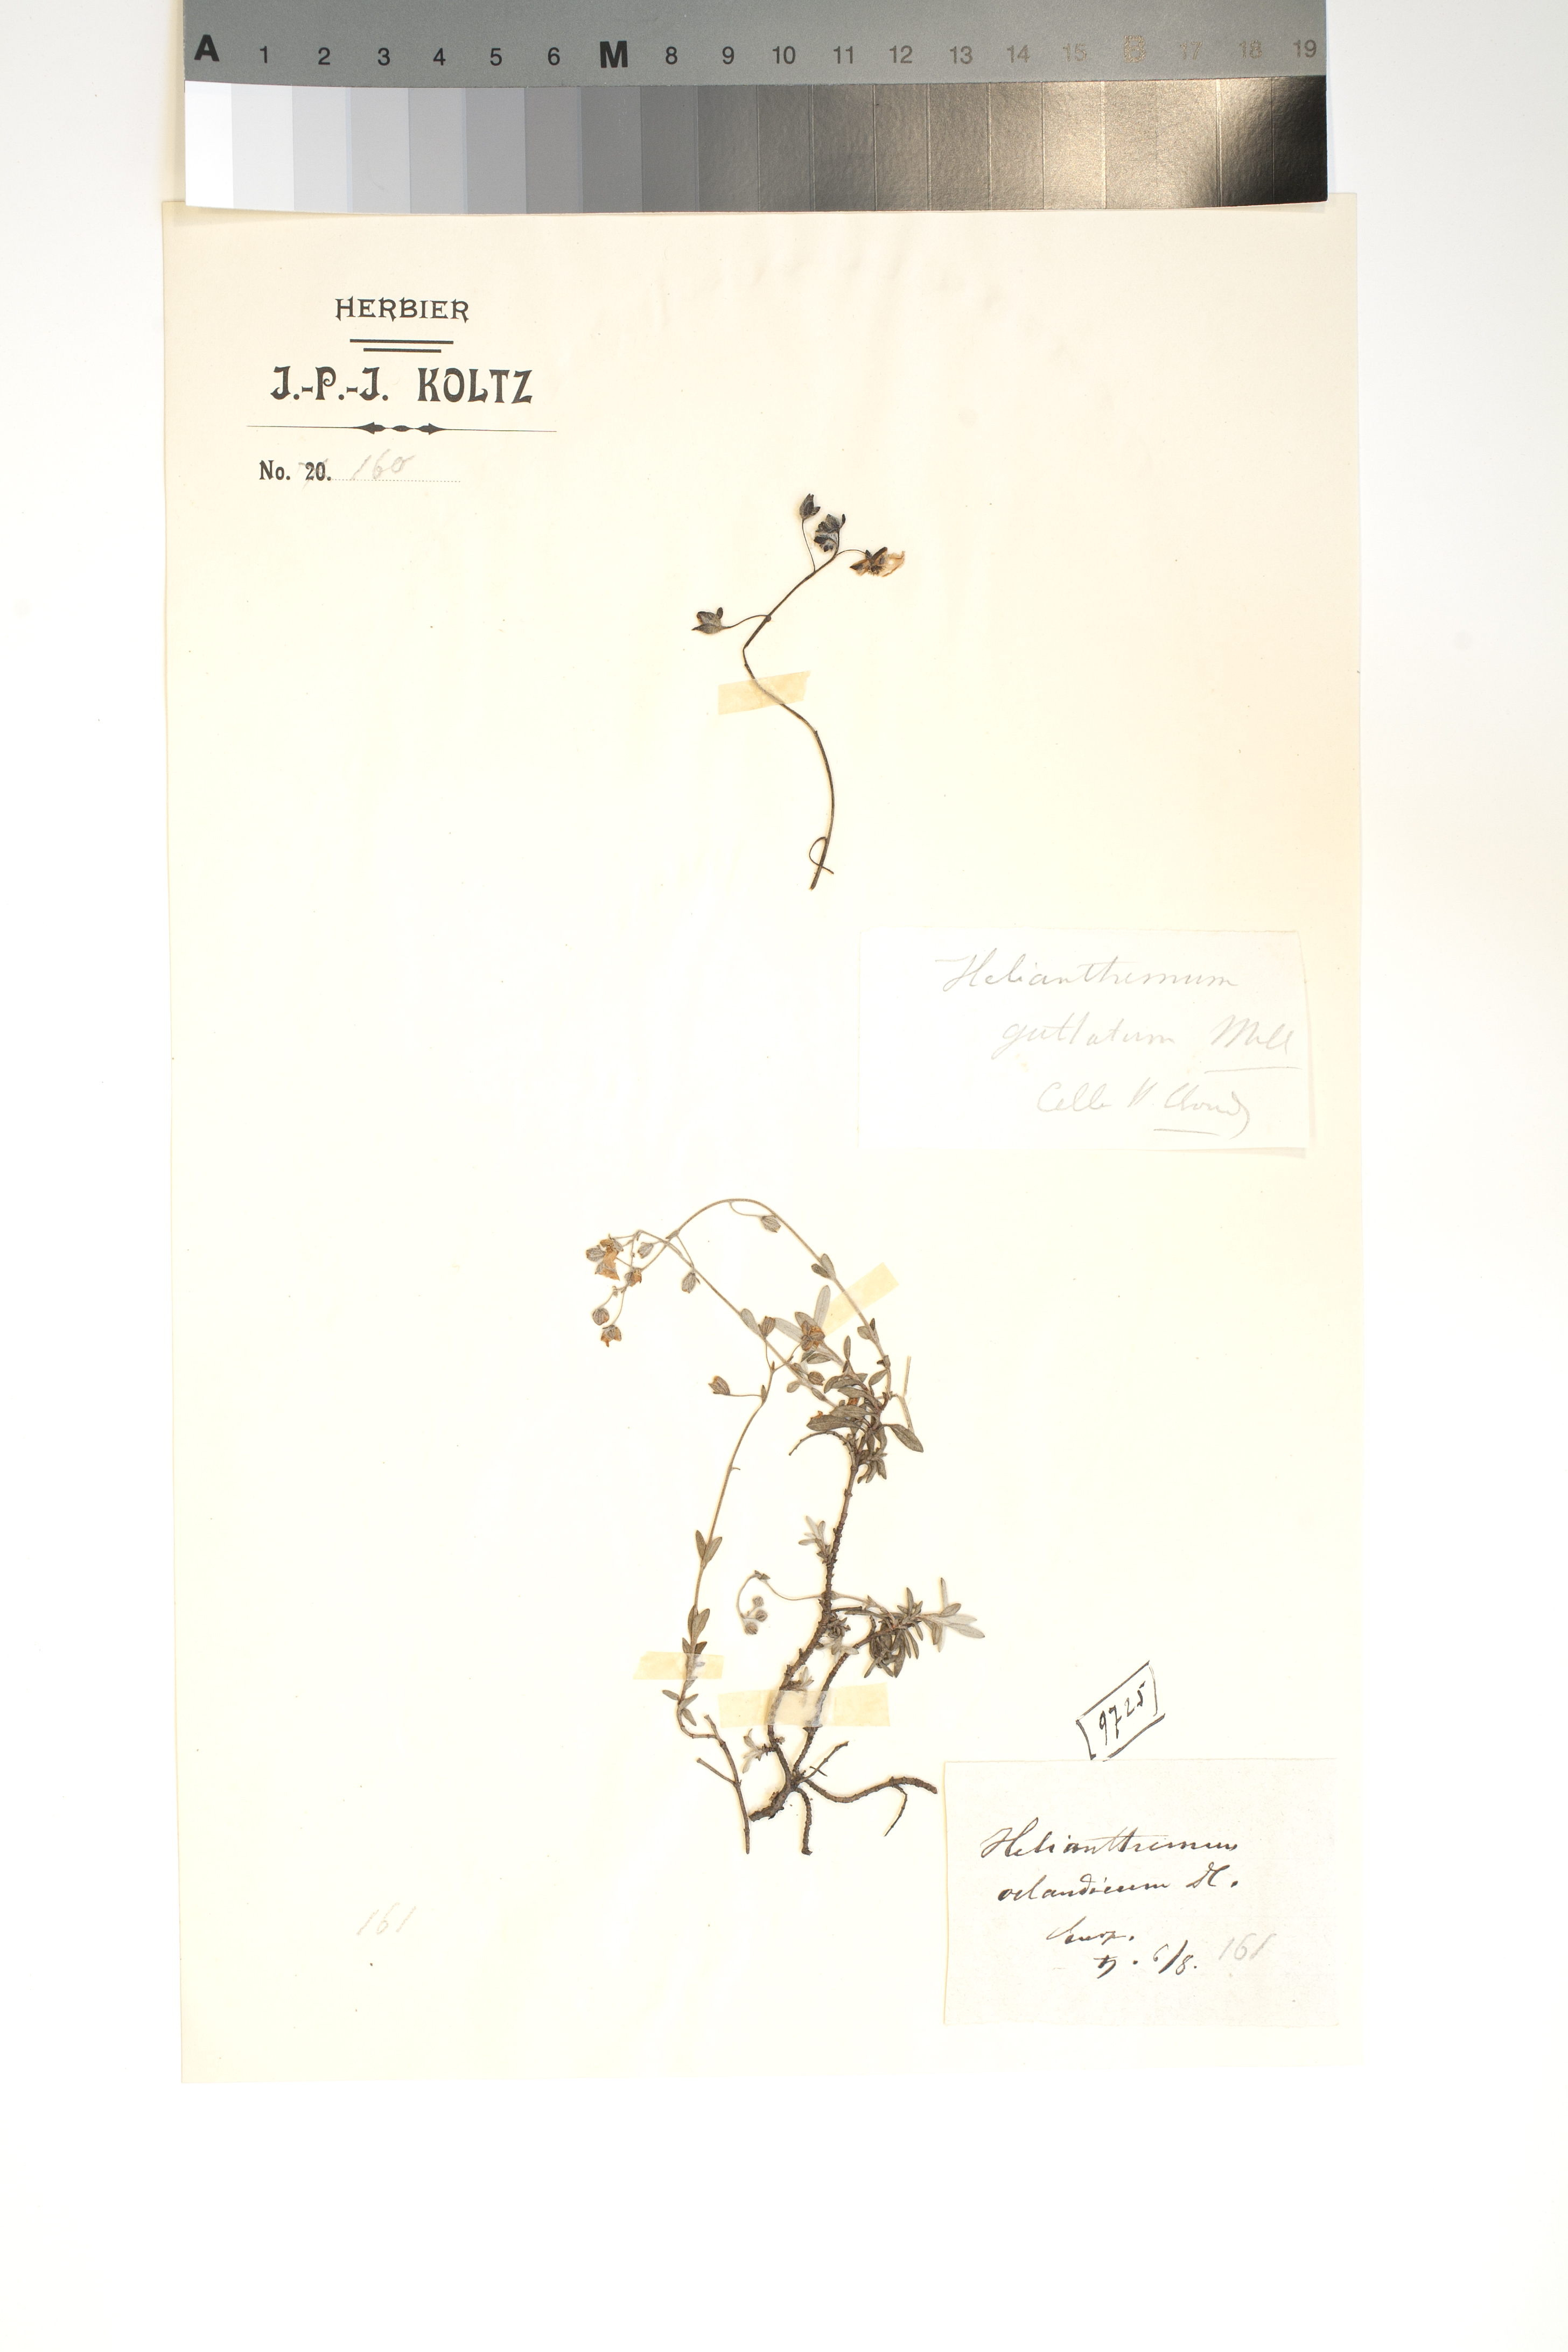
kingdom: Plantae
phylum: Tracheophyta
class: Magnoliopsida
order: Malvales
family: Cistaceae
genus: Helianthemum
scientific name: Helianthemum oelandicum
